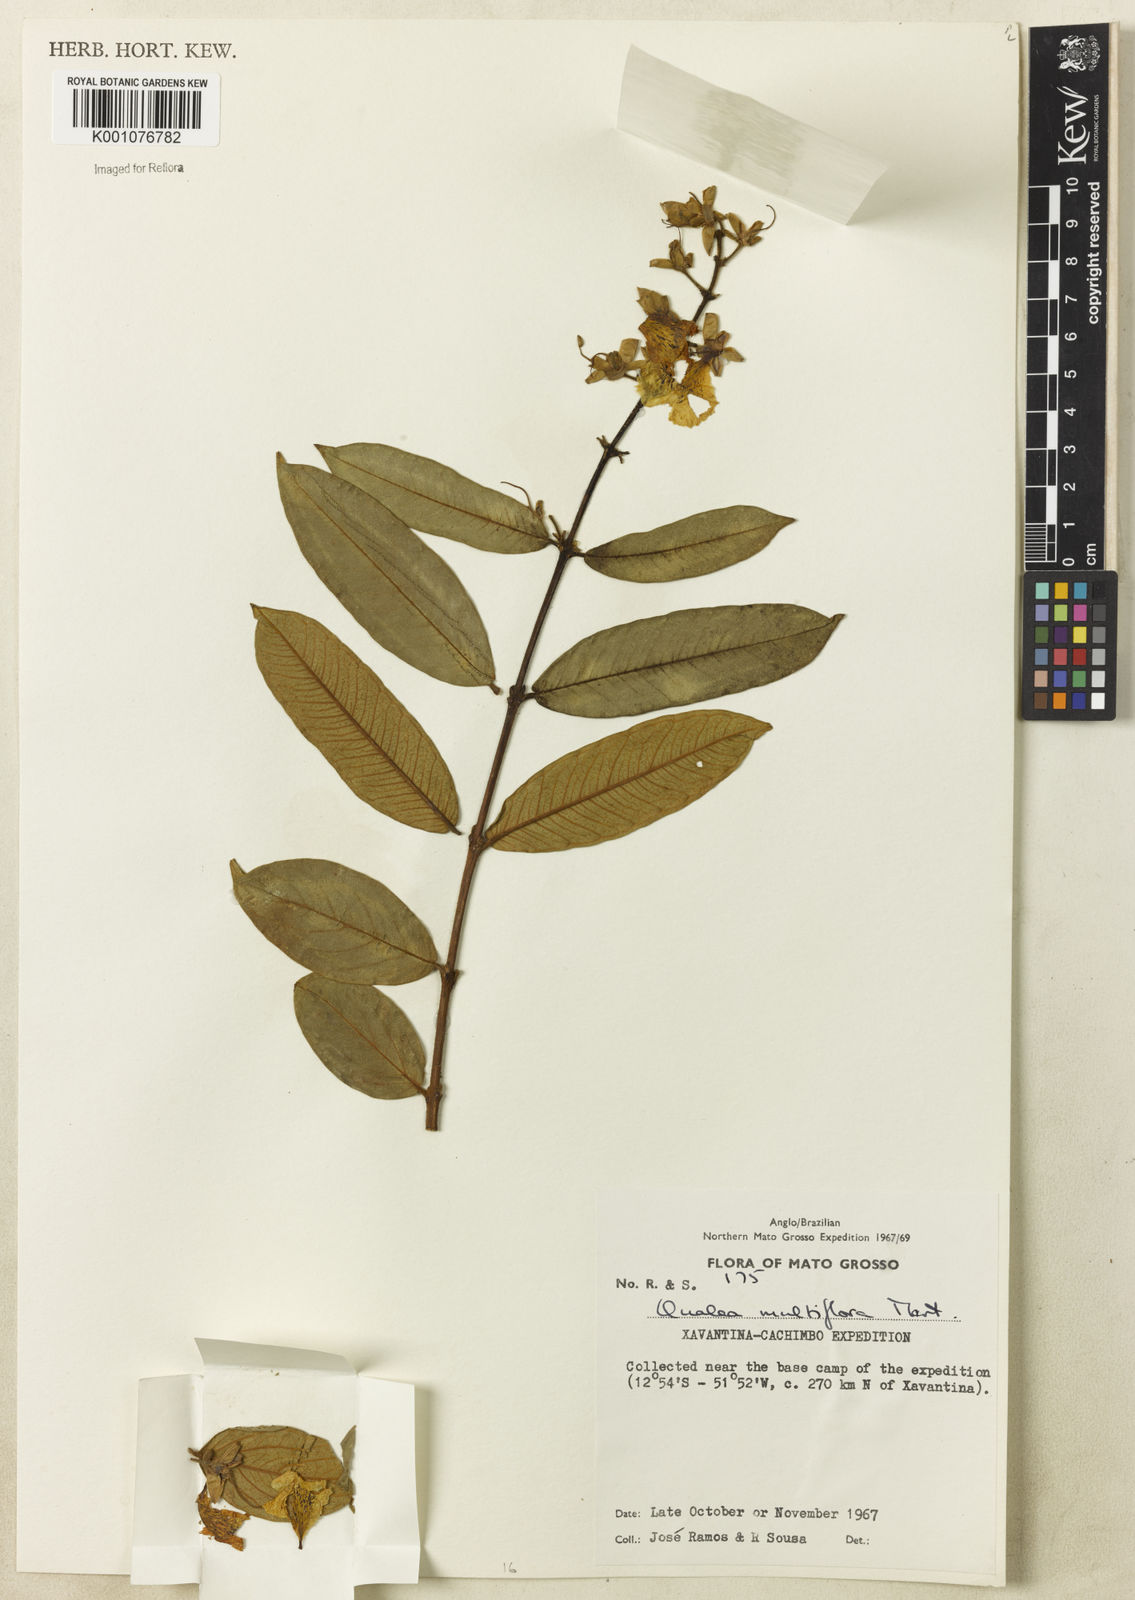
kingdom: Plantae
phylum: Tracheophyta
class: Magnoliopsida
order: Myrtales
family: Vochysiaceae
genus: Qualea
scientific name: Qualea multiflora
